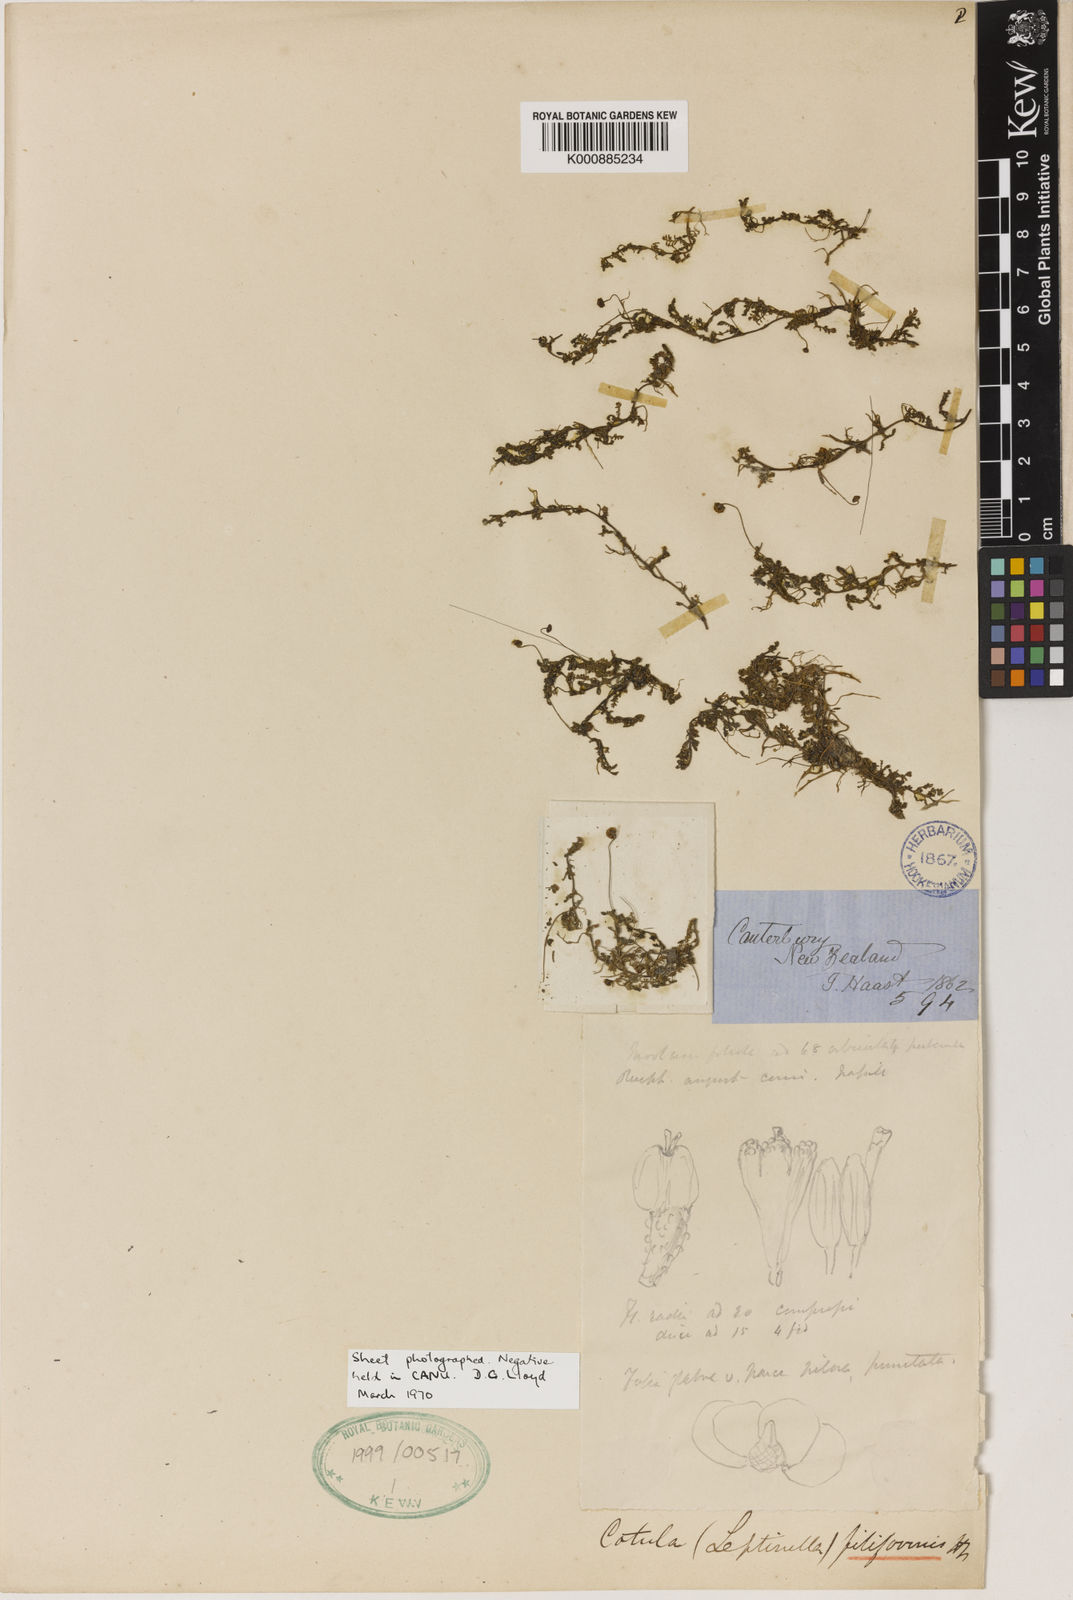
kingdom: Plantae
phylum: Tracheophyta
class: Magnoliopsida
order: Asterales
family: Asteraceae
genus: Leptinella
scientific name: Leptinella
